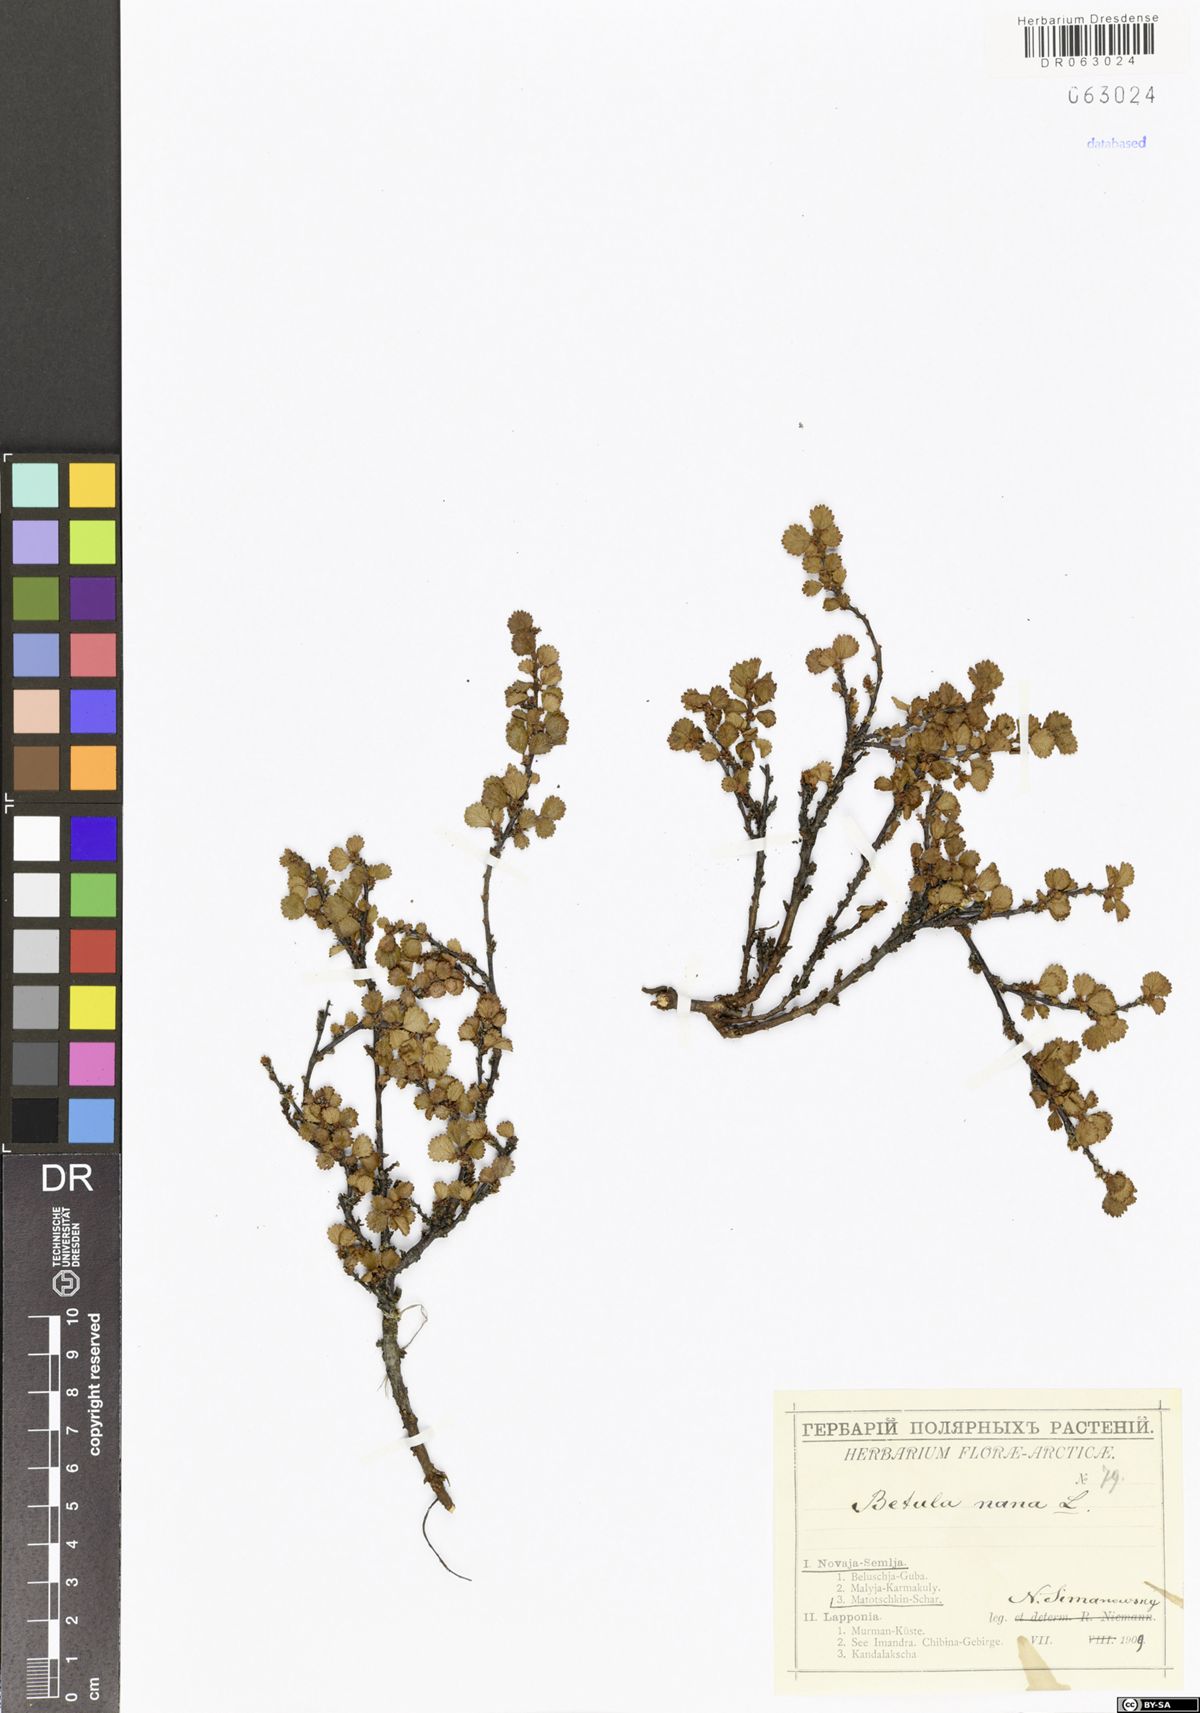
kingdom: Plantae
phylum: Tracheophyta
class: Magnoliopsida
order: Fagales
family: Betulaceae
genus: Betula
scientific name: Betula nana
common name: Arctic dwarf birch
